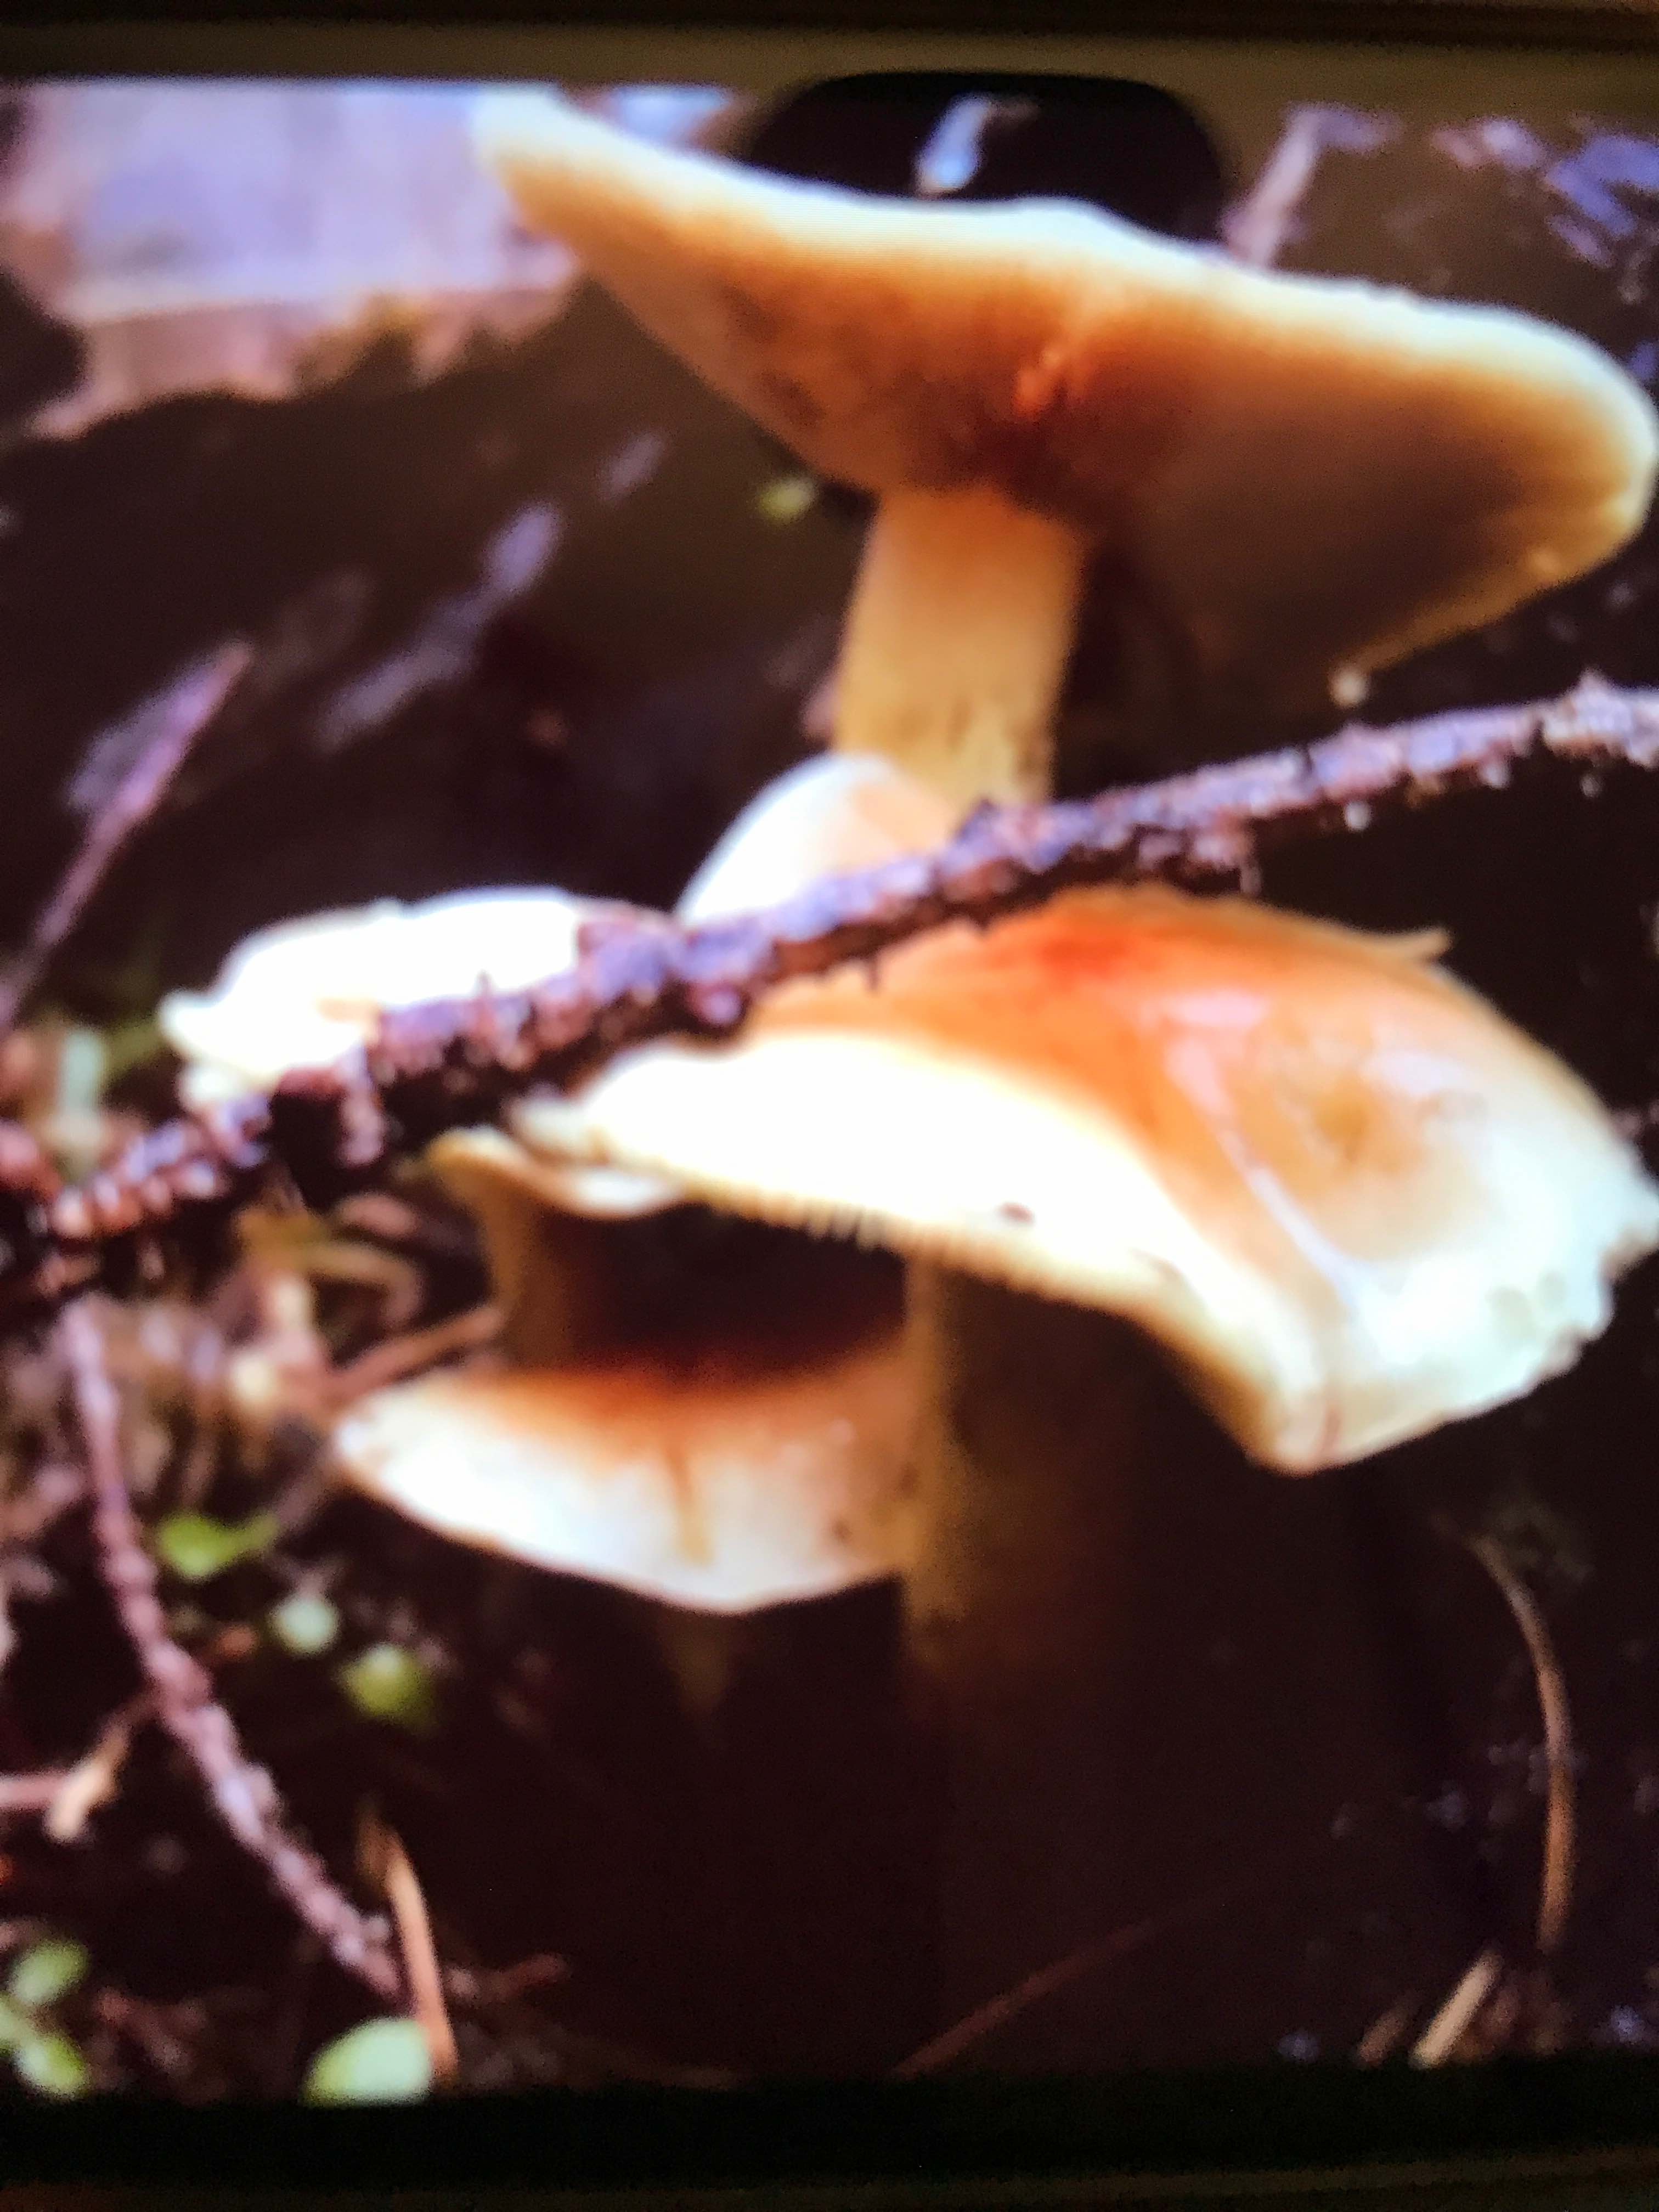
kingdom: Fungi
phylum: Basidiomycota
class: Agaricomycetes
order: Agaricales
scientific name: Agaricales
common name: champignonordenen
